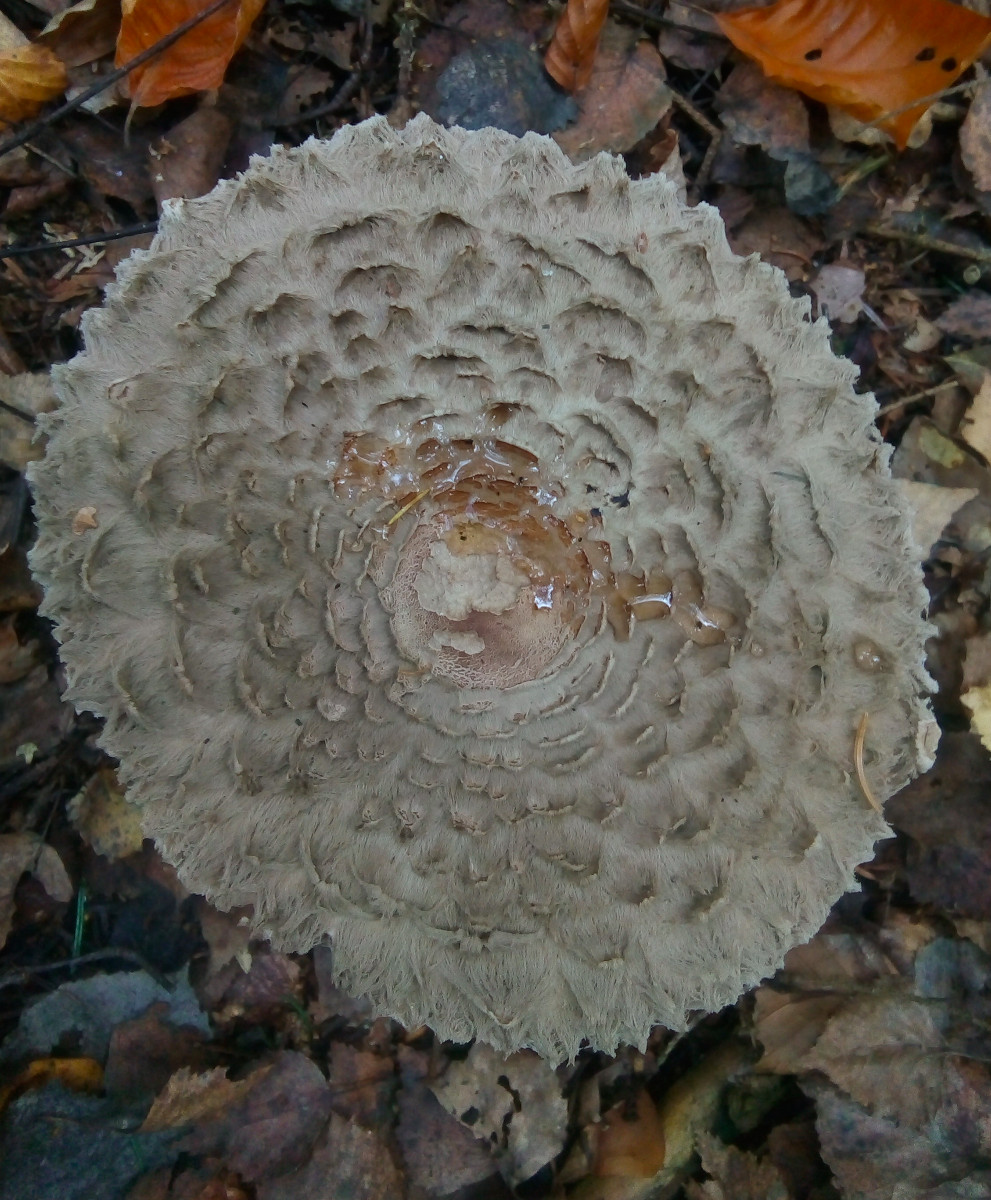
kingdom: Fungi
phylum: Basidiomycota
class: Agaricomycetes
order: Agaricales
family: Agaricaceae
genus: Chlorophyllum
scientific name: Chlorophyllum olivieri
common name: almindelig rabarberhat
